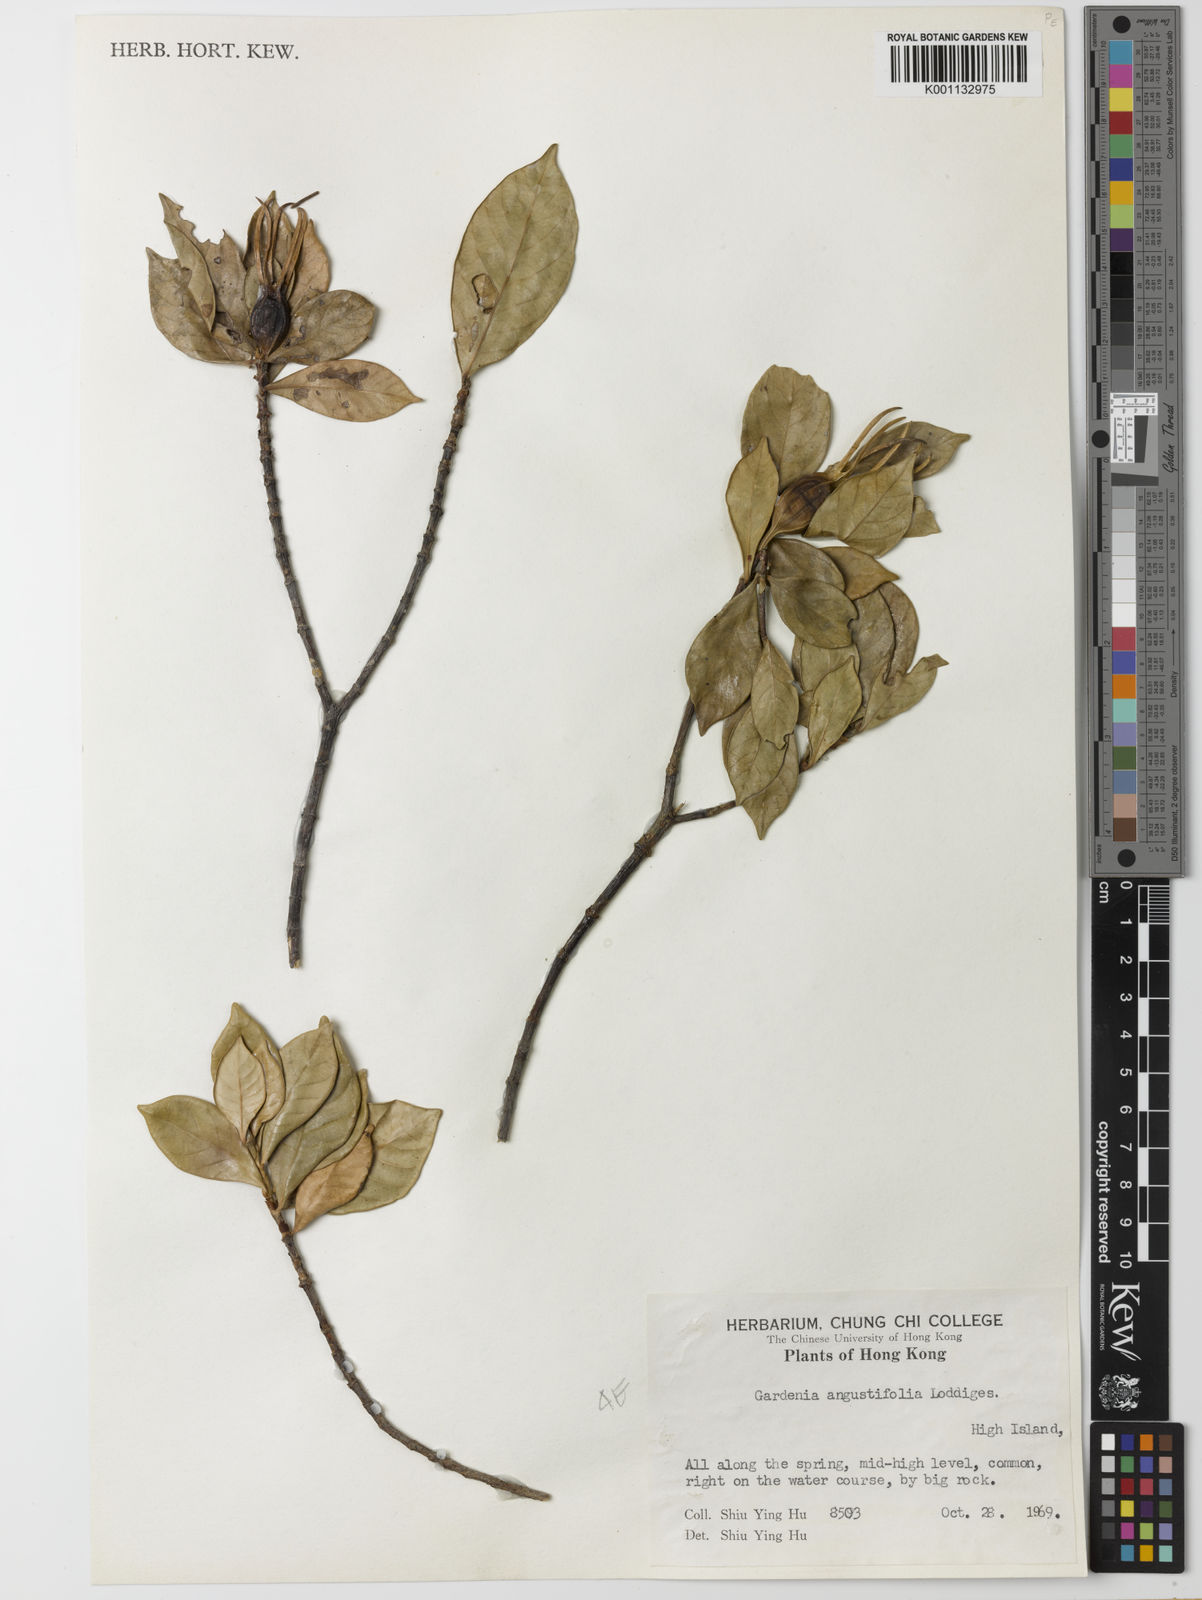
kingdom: Plantae
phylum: Tracheophyta
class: Magnoliopsida
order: Gentianales
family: Rubiaceae
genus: Gardenia
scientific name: Gardenia jasminoides
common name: Cape-jasmine
